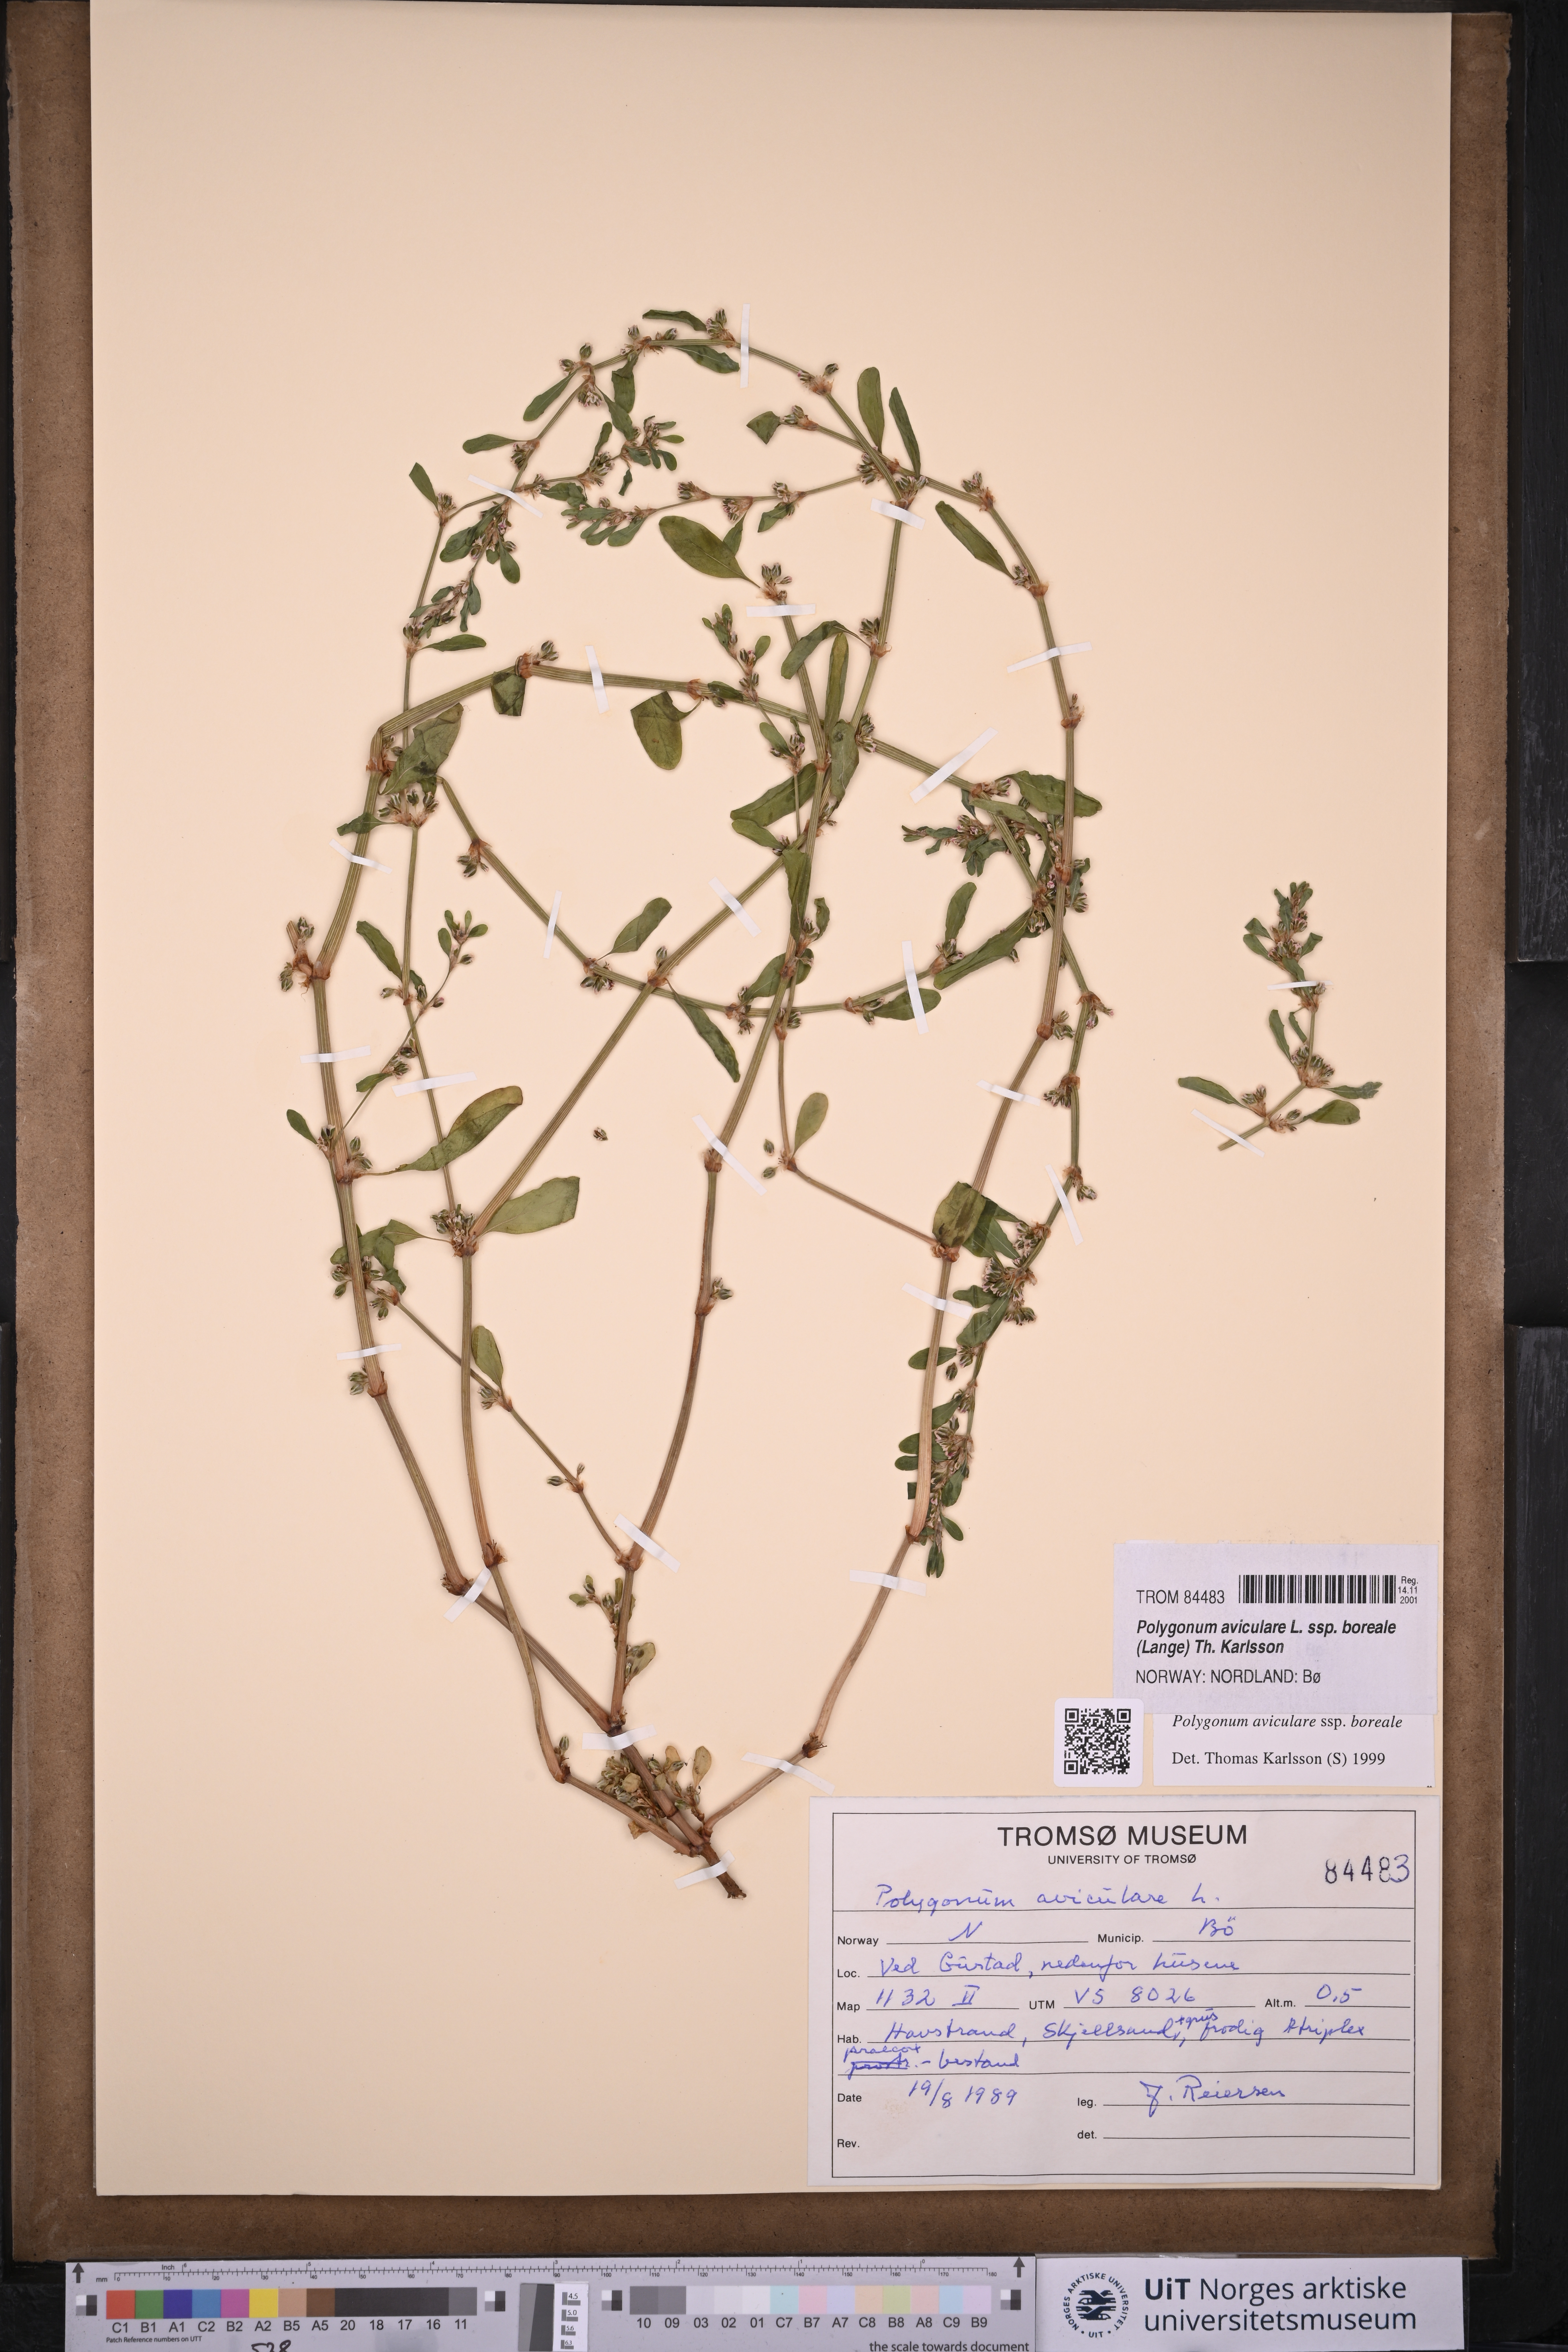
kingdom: Plantae
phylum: Tracheophyta
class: Magnoliopsida
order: Caryophyllales
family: Polygonaceae
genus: Polygonum
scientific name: Polygonum boreale
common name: Northern knotgrass
